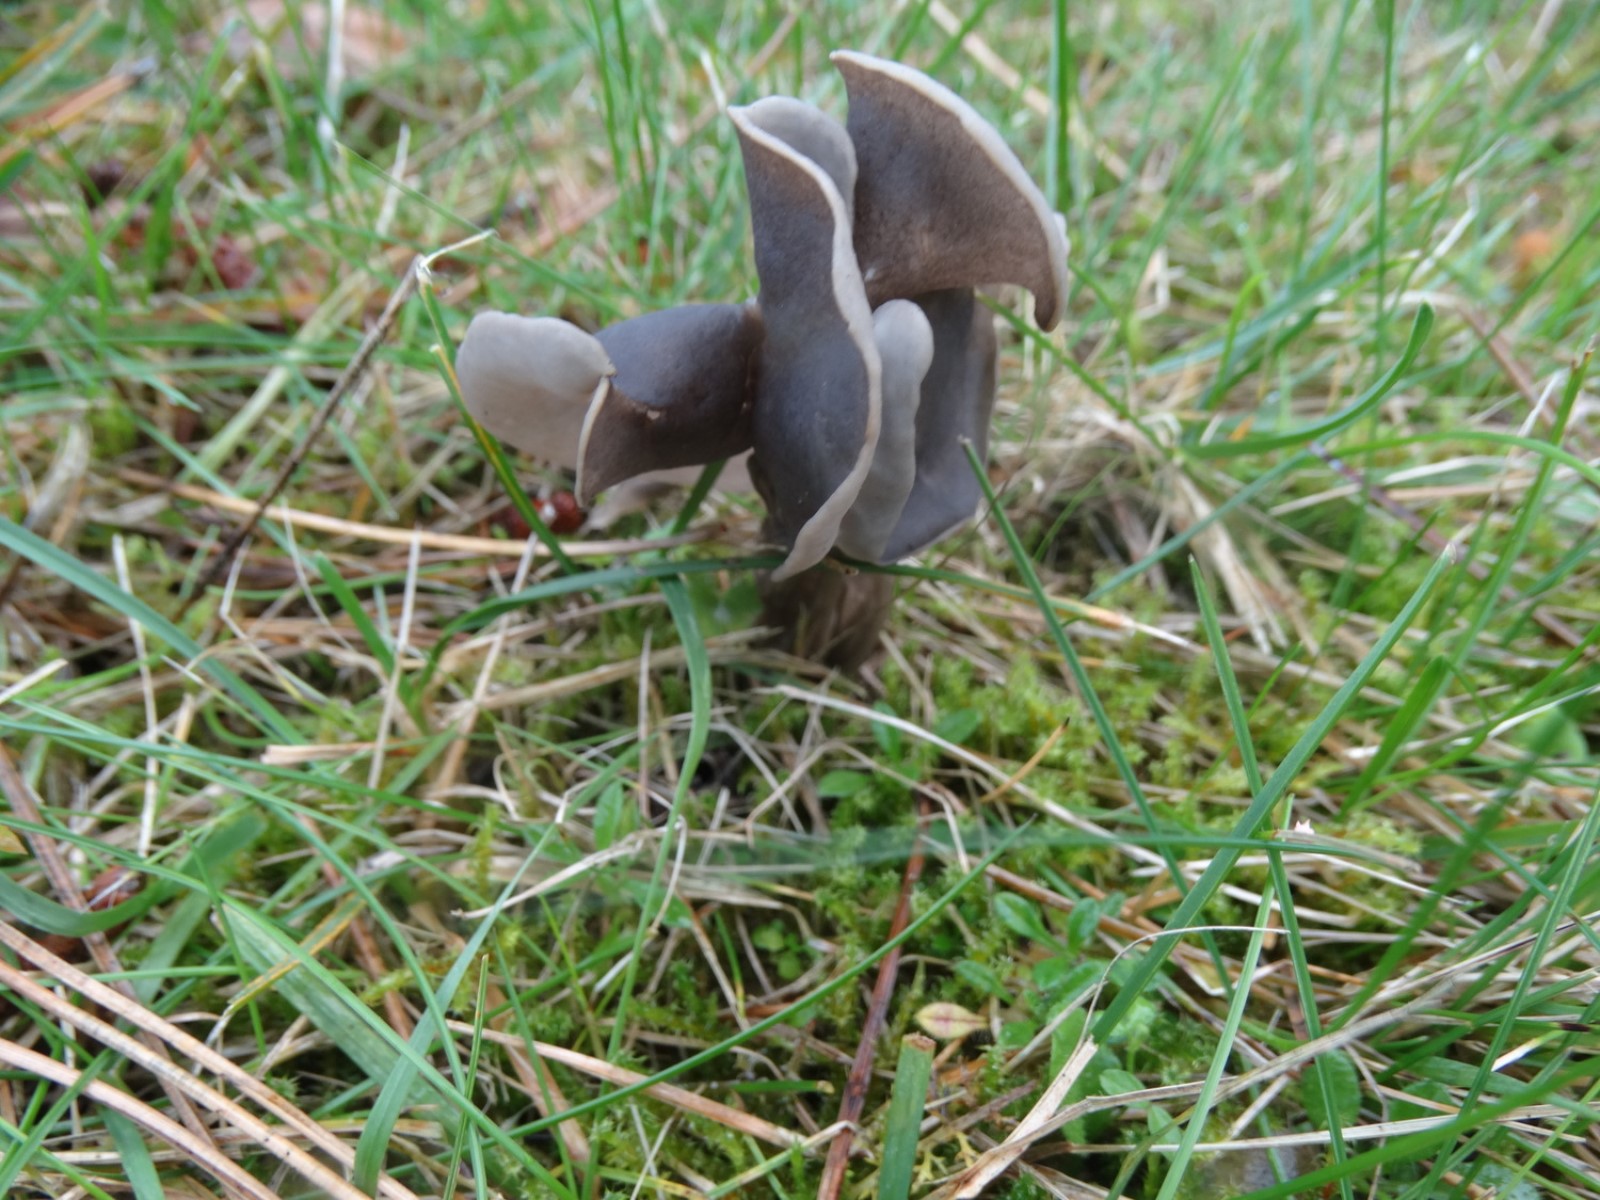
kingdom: Fungi
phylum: Ascomycota
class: Pezizomycetes
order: Pezizales
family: Helvellaceae
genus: Helvella
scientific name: Helvella lacunosa
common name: grubet foldhat
